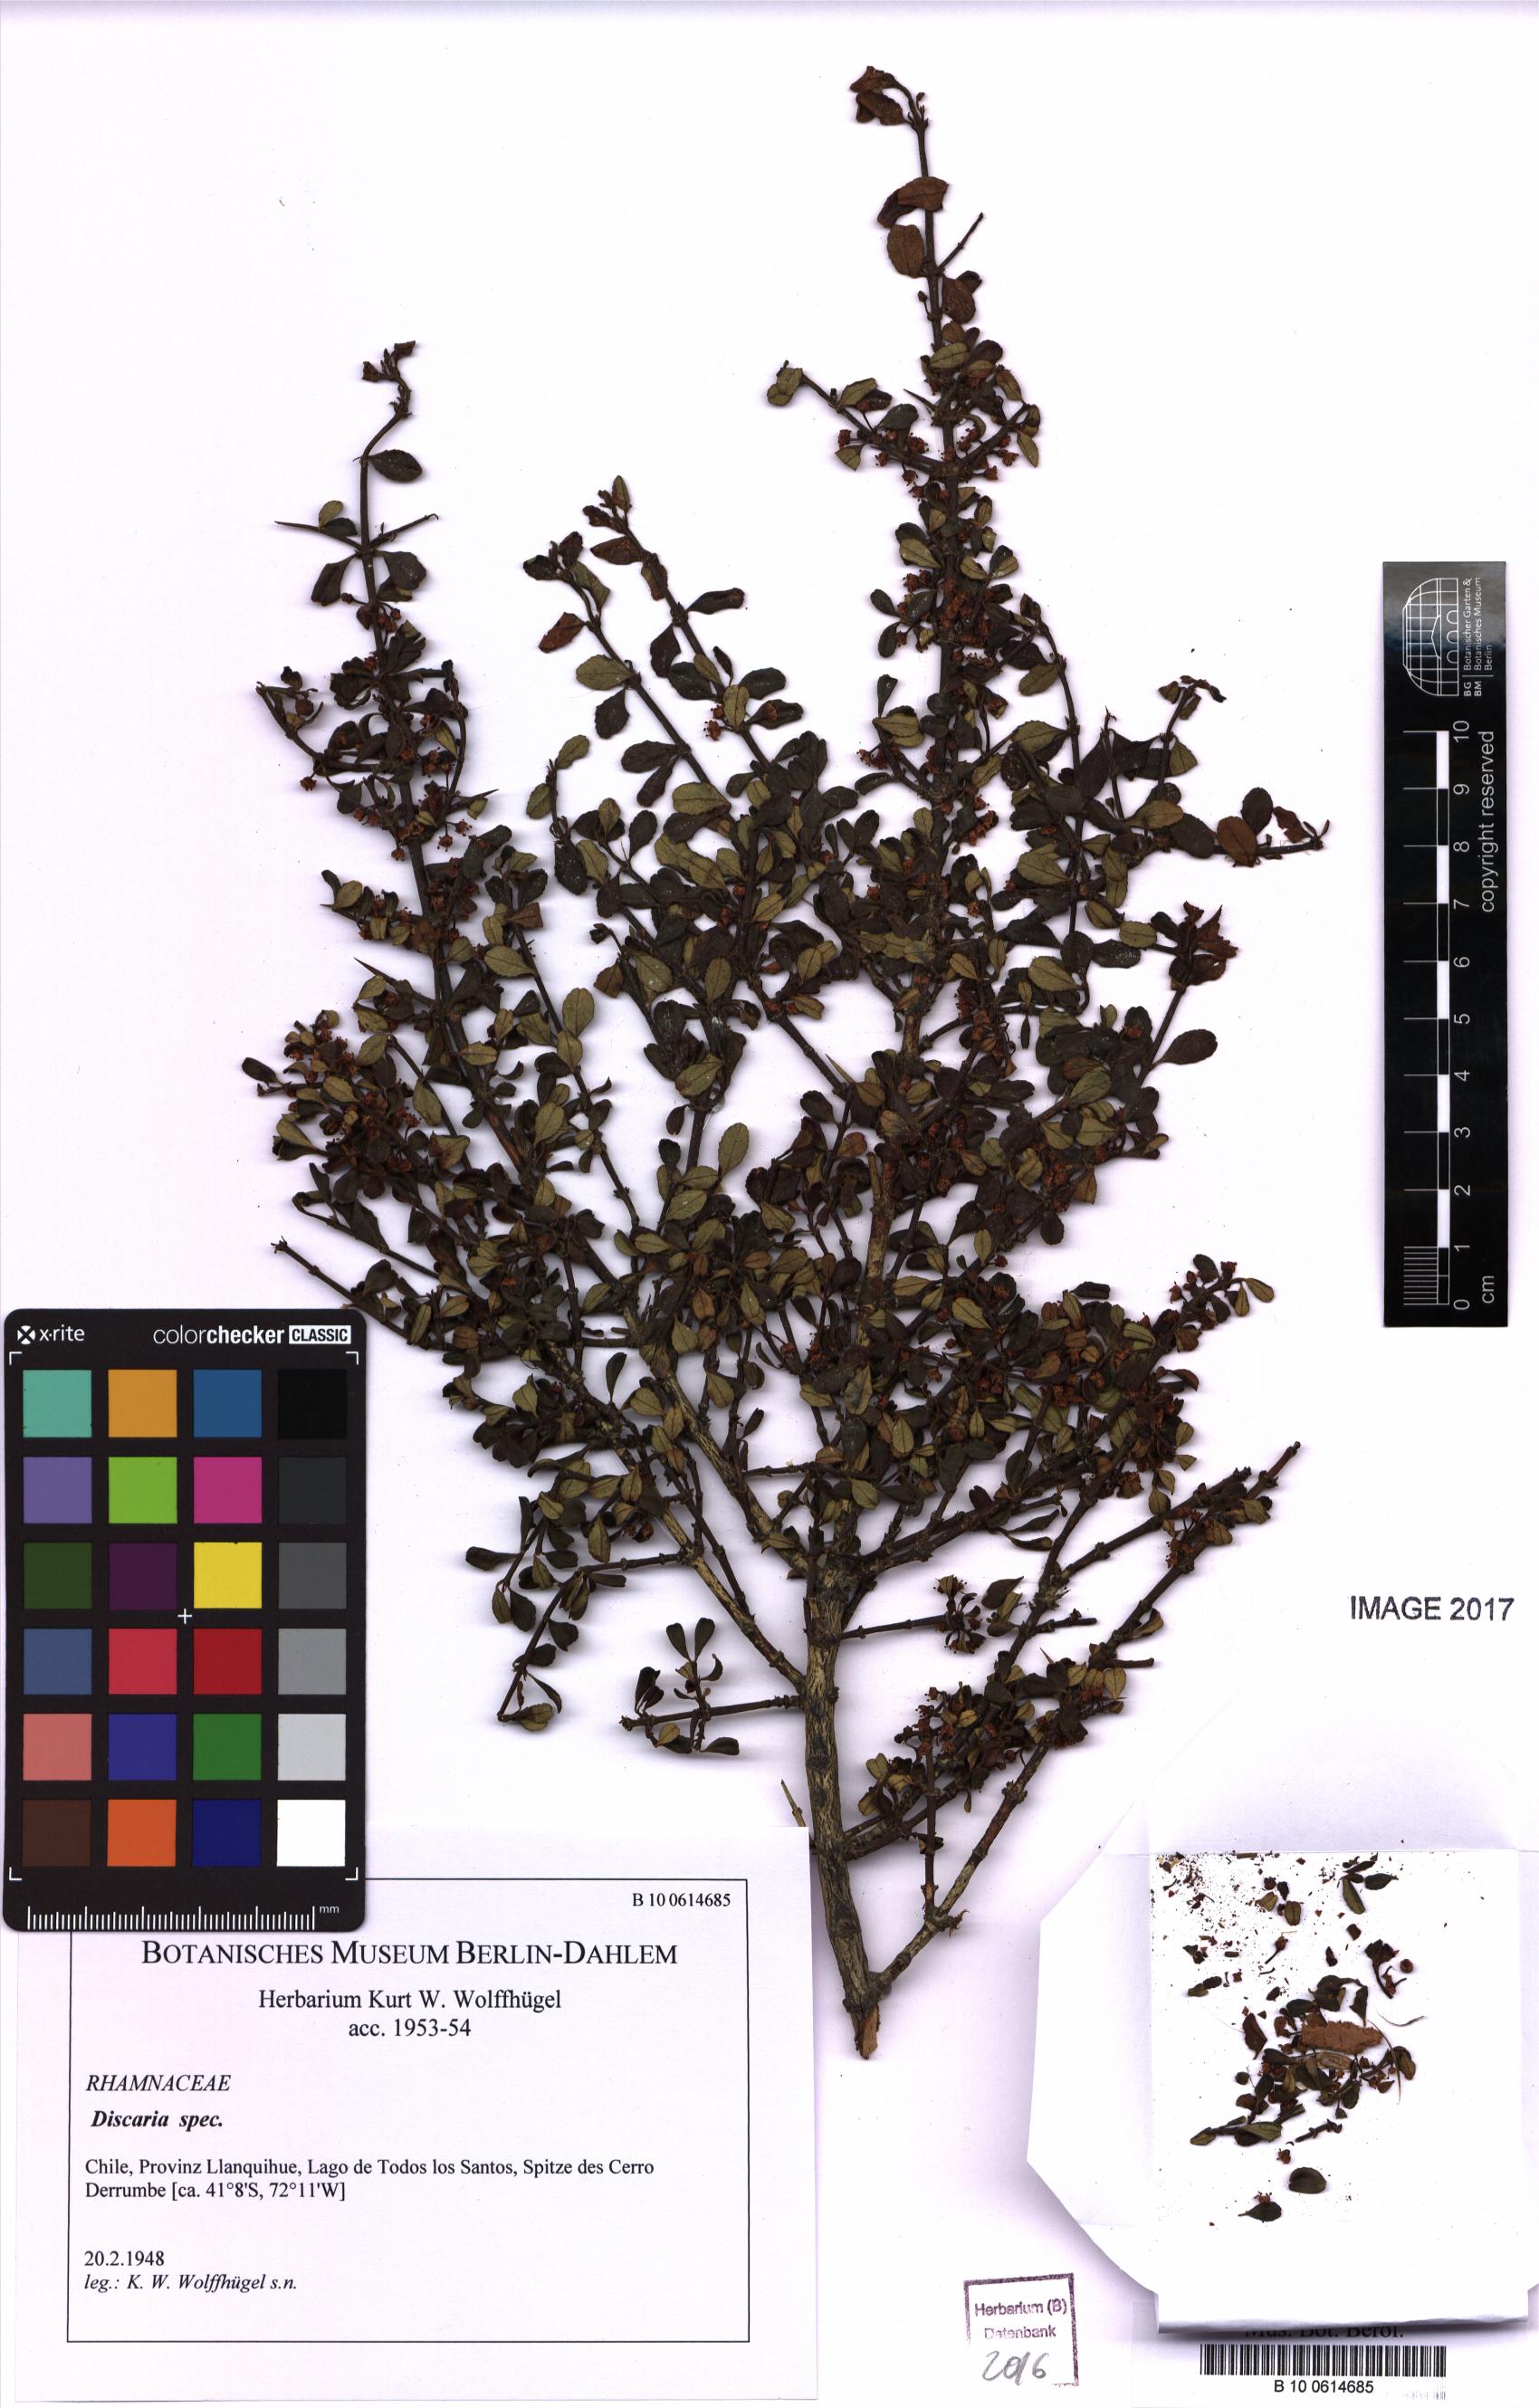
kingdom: Plantae
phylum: Tracheophyta
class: Magnoliopsida
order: Rosales
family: Rhamnaceae
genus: Discaria
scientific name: Discaria
